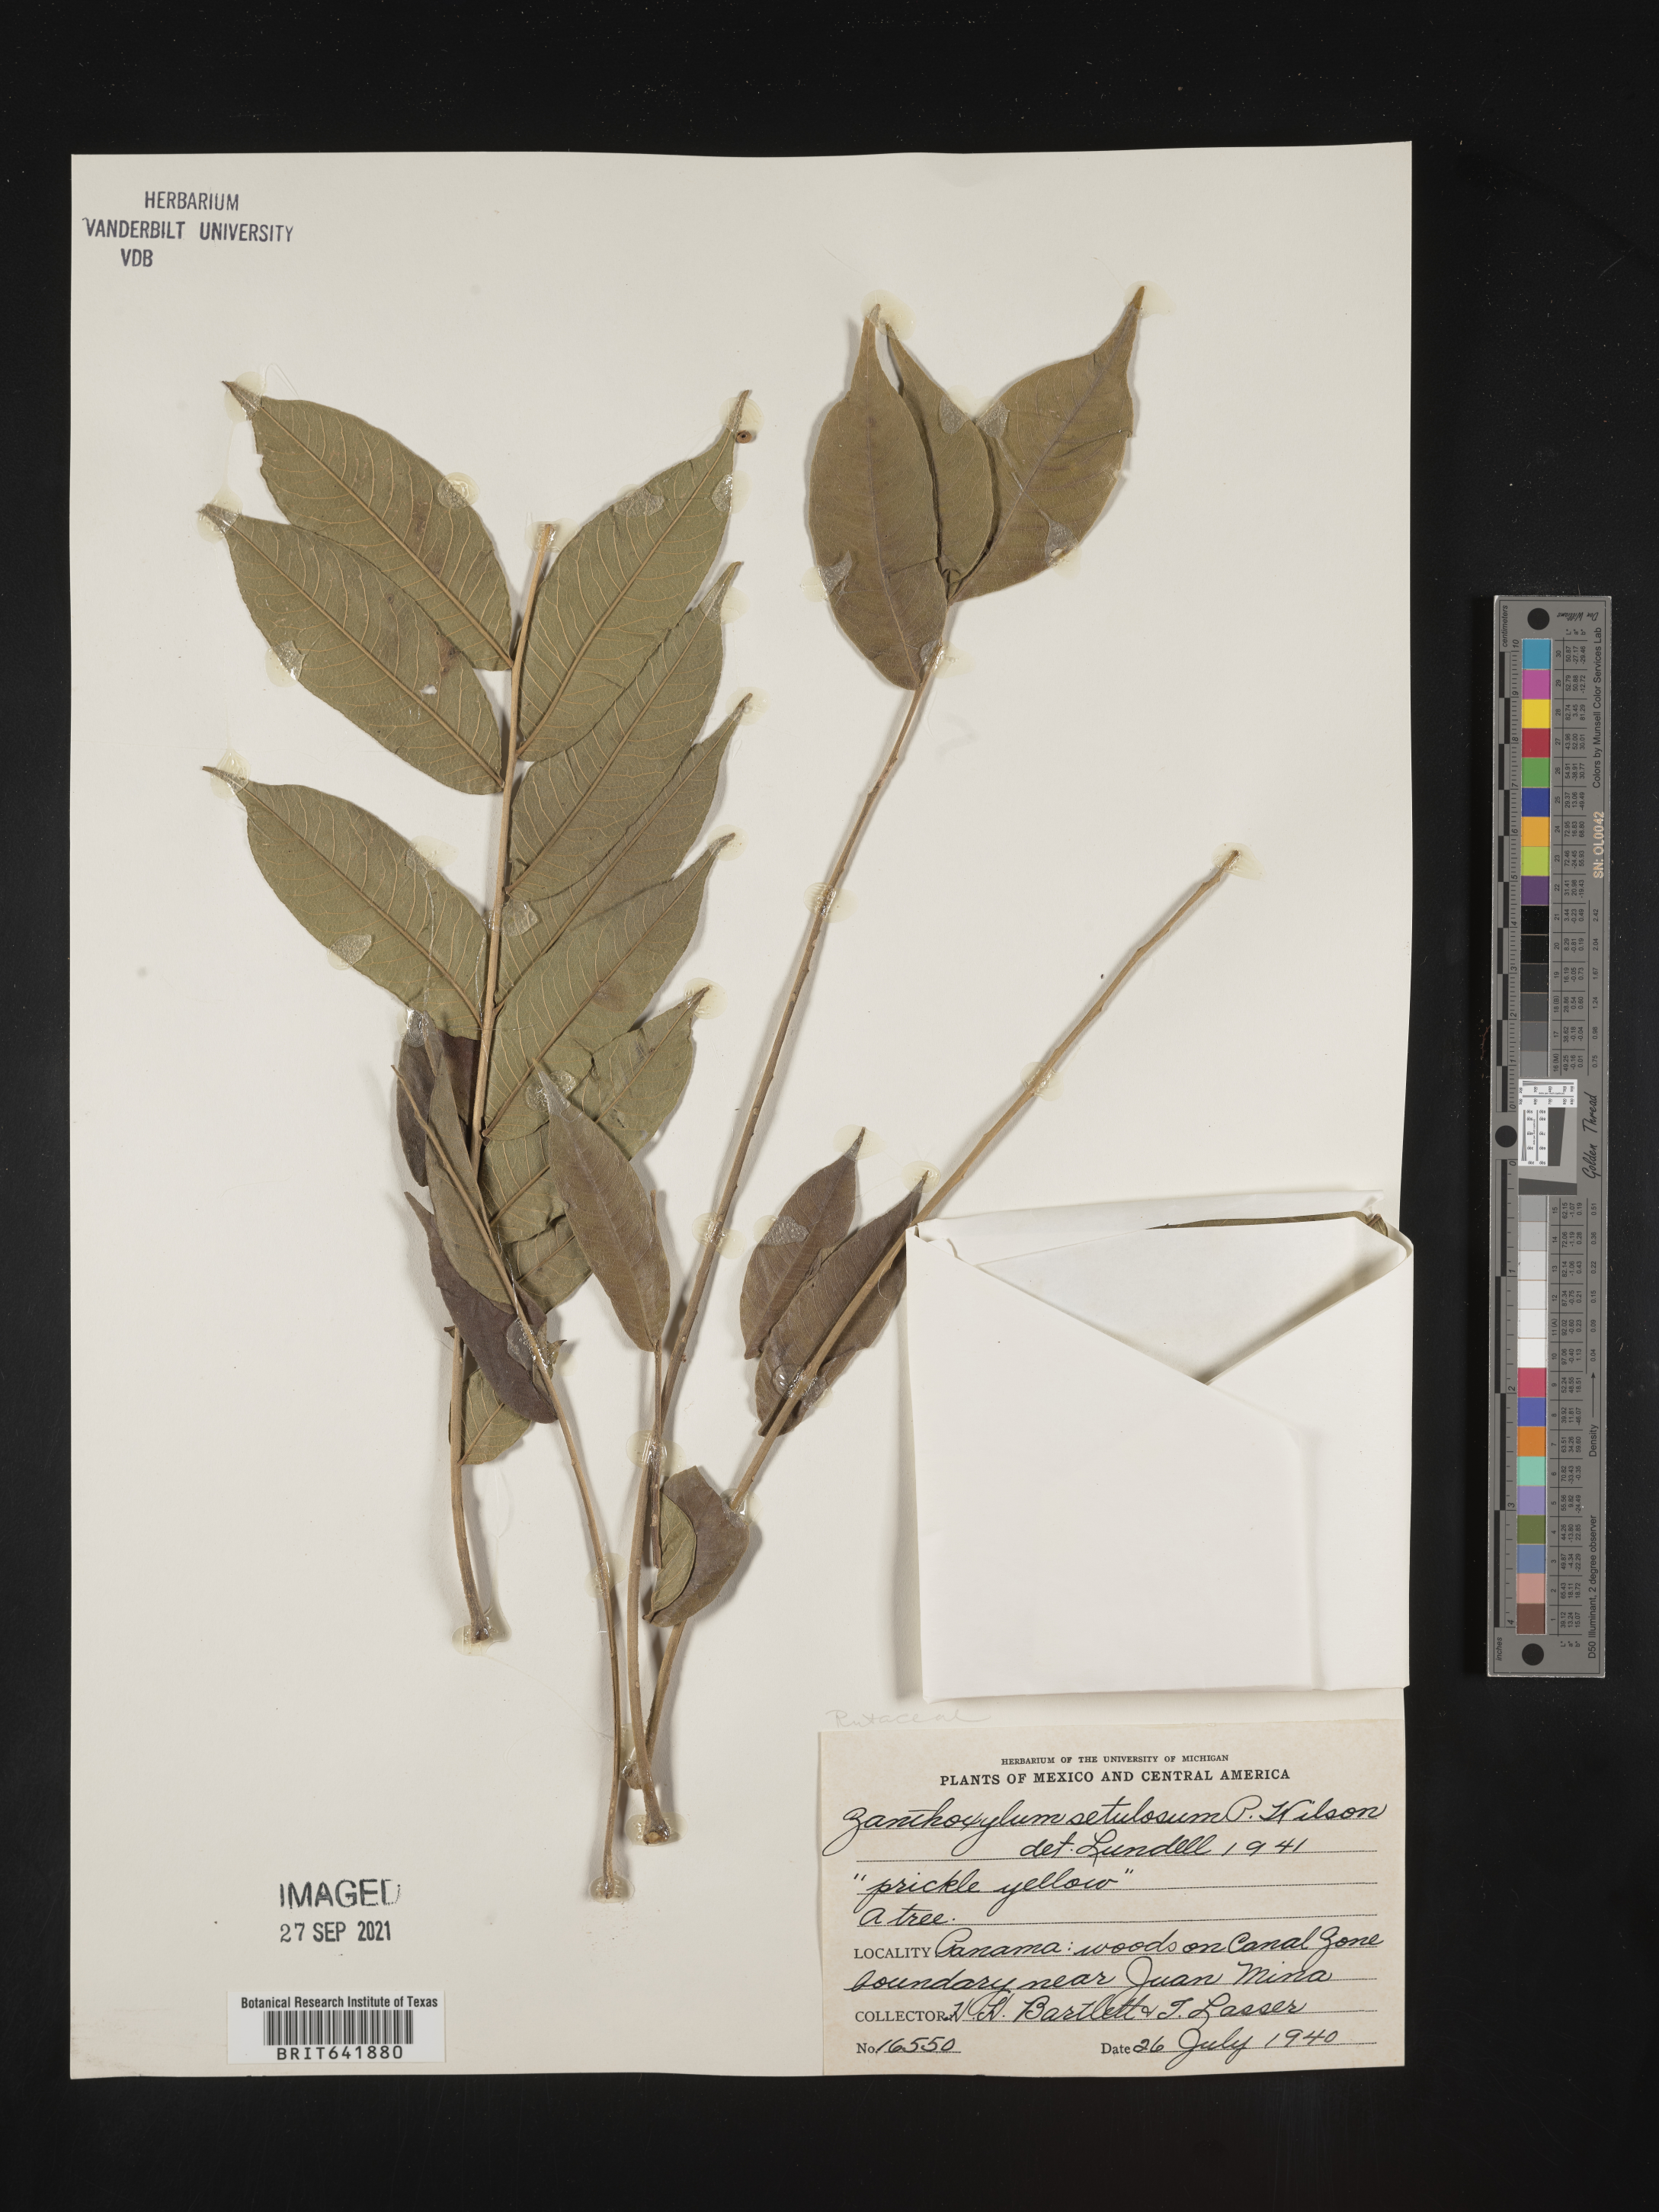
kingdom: Plantae
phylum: Tracheophyta
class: Magnoliopsida
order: Sapindales
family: Rutaceae
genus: Zanthoxylum
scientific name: Zanthoxylum
